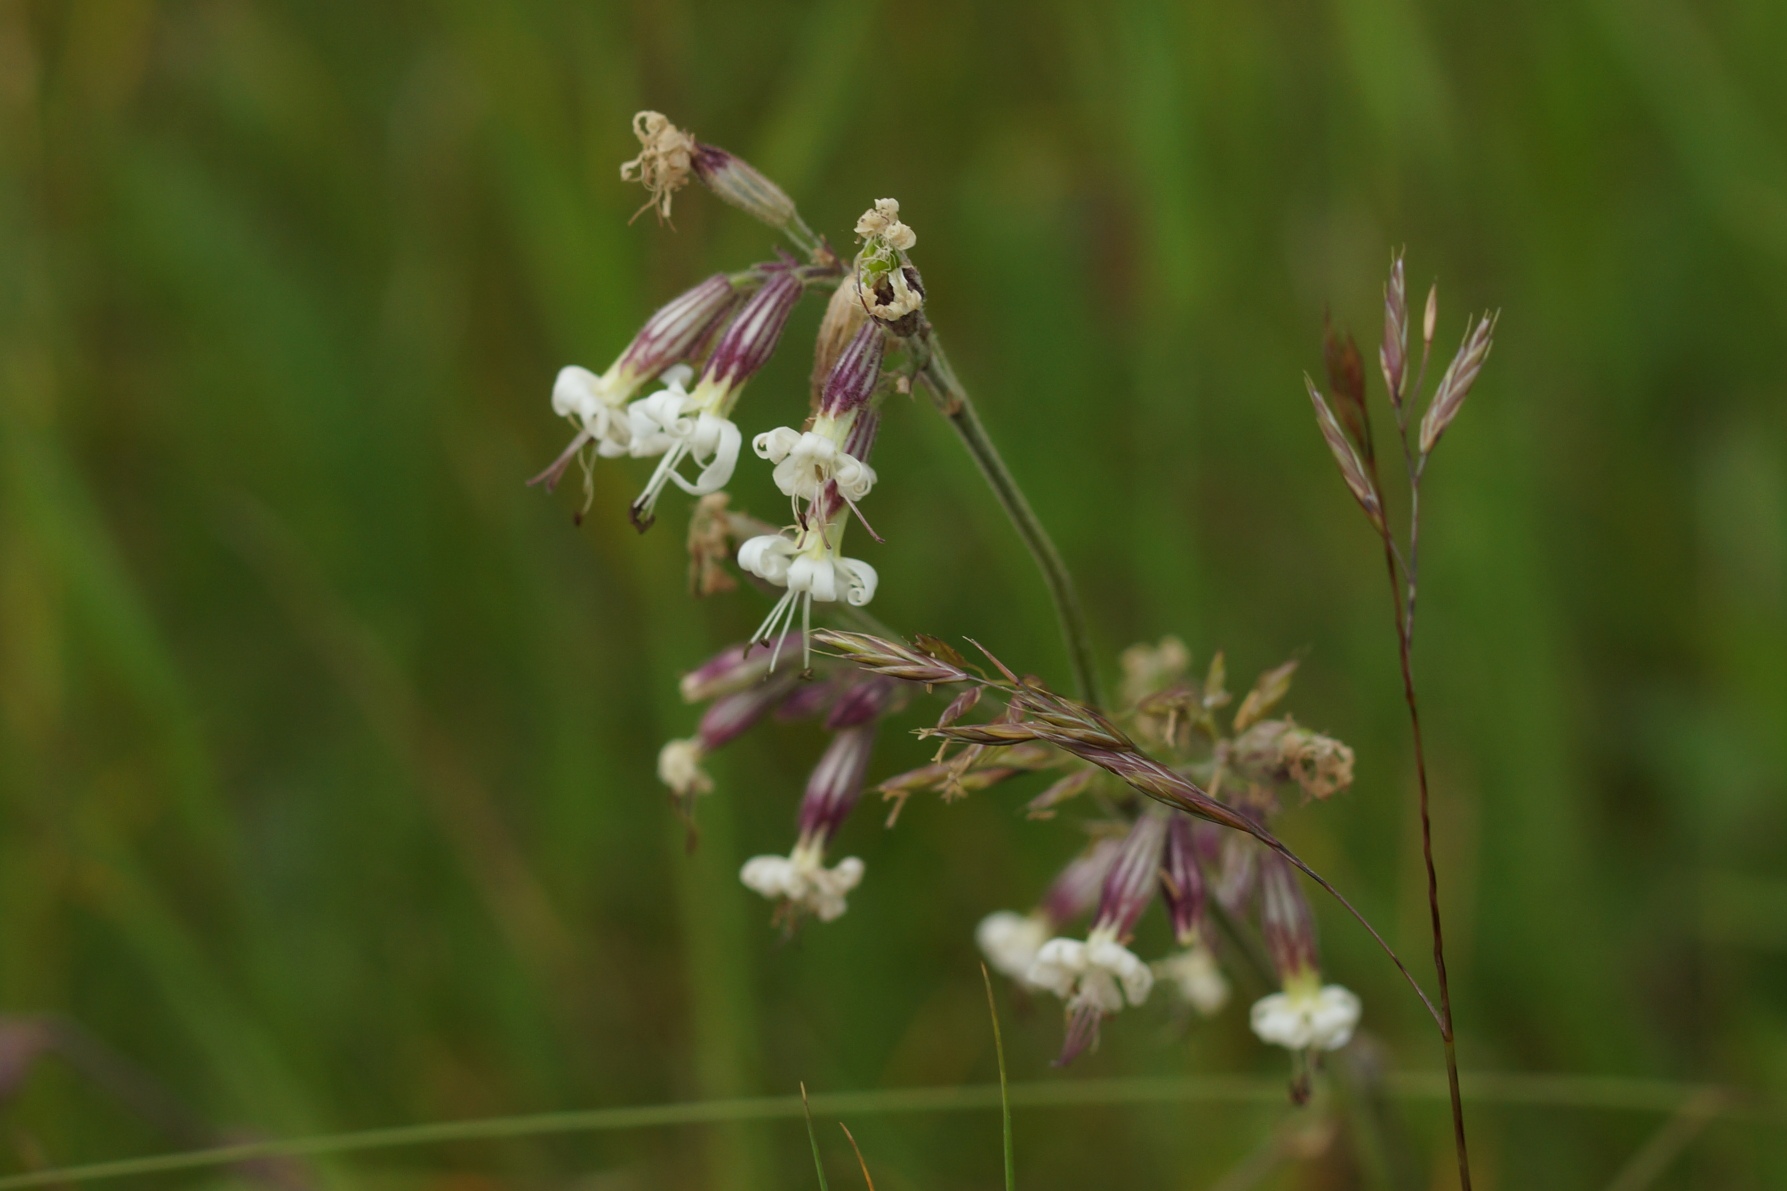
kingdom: Plantae
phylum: Tracheophyta
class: Magnoliopsida
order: Caryophyllales
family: Caryophyllaceae
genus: Silene
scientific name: Silene nutans
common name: Nikkende limurt
